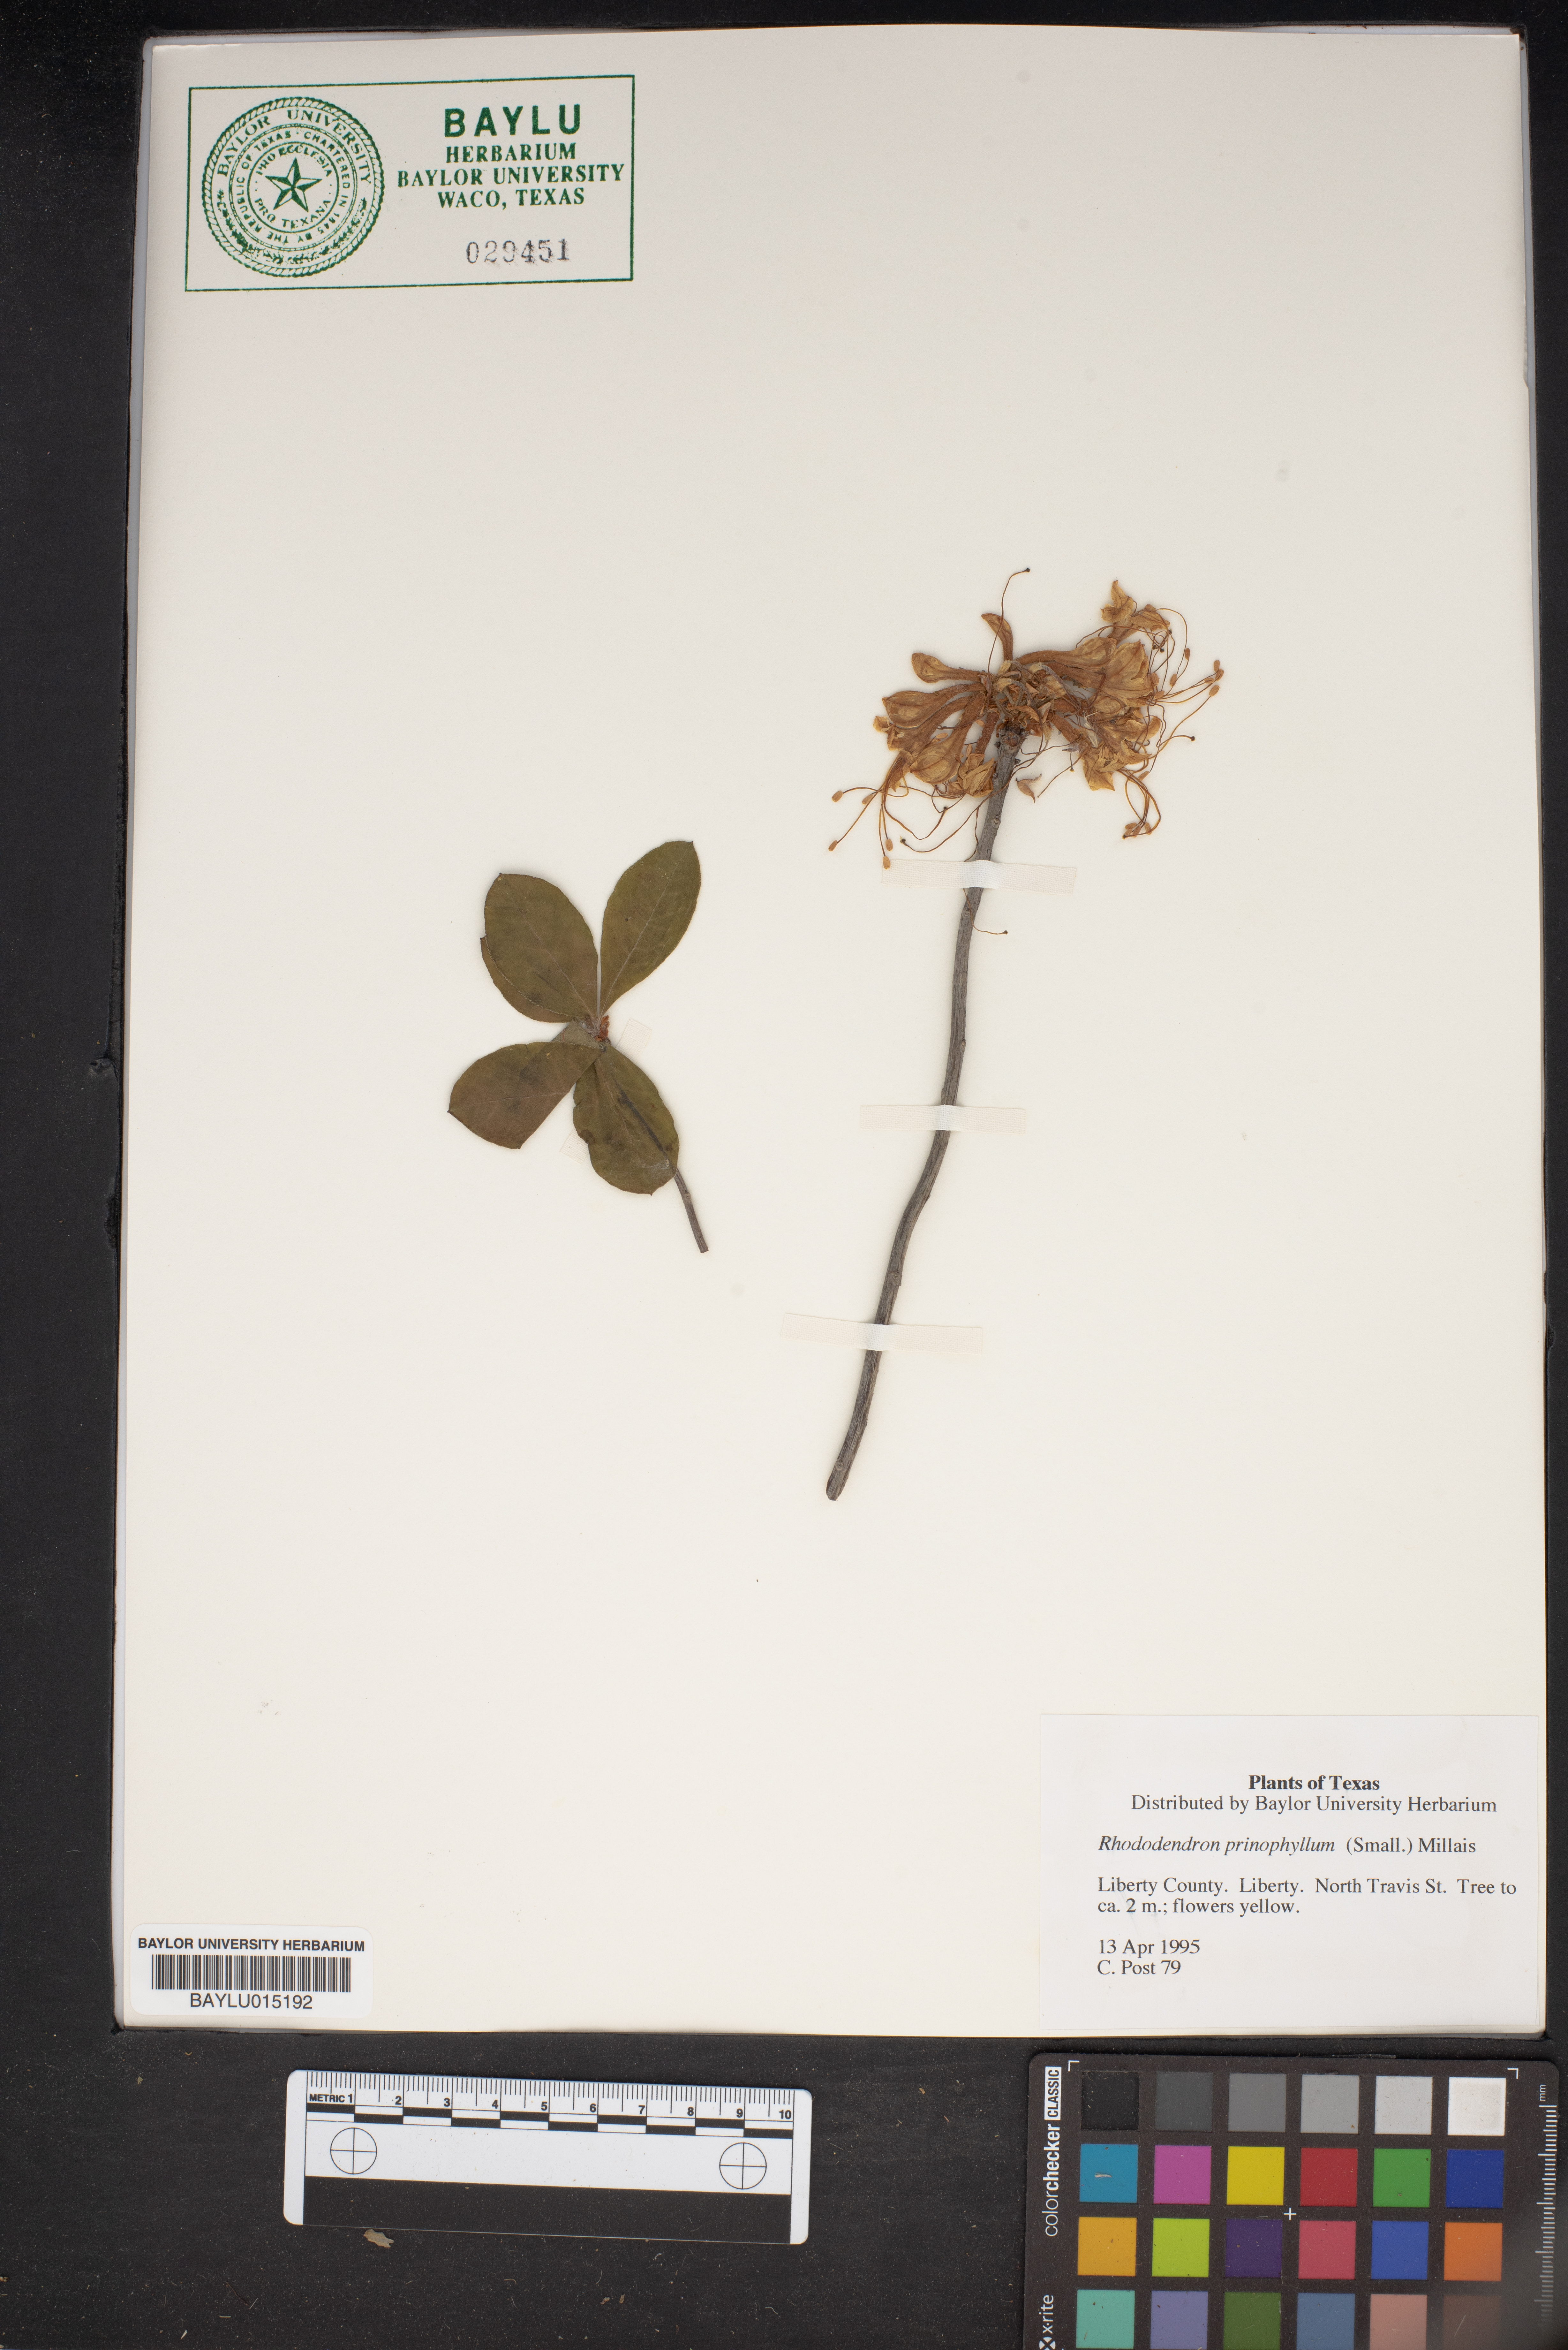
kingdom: Plantae
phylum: Tracheophyta
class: Magnoliopsida
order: Ericales
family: Ericaceae
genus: Rhododendron
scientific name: Rhododendron roseum
